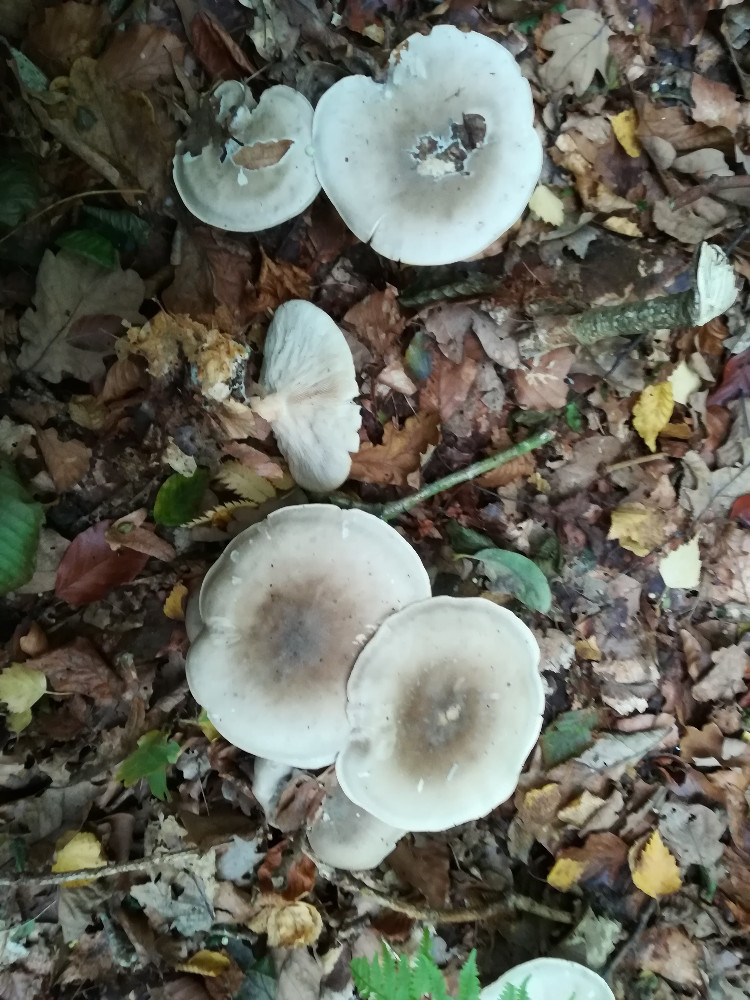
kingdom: Fungi
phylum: Basidiomycota
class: Agaricomycetes
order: Agaricales
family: Tricholomataceae
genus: Clitocybe
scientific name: Clitocybe nebularis
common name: tåge-tragthat
